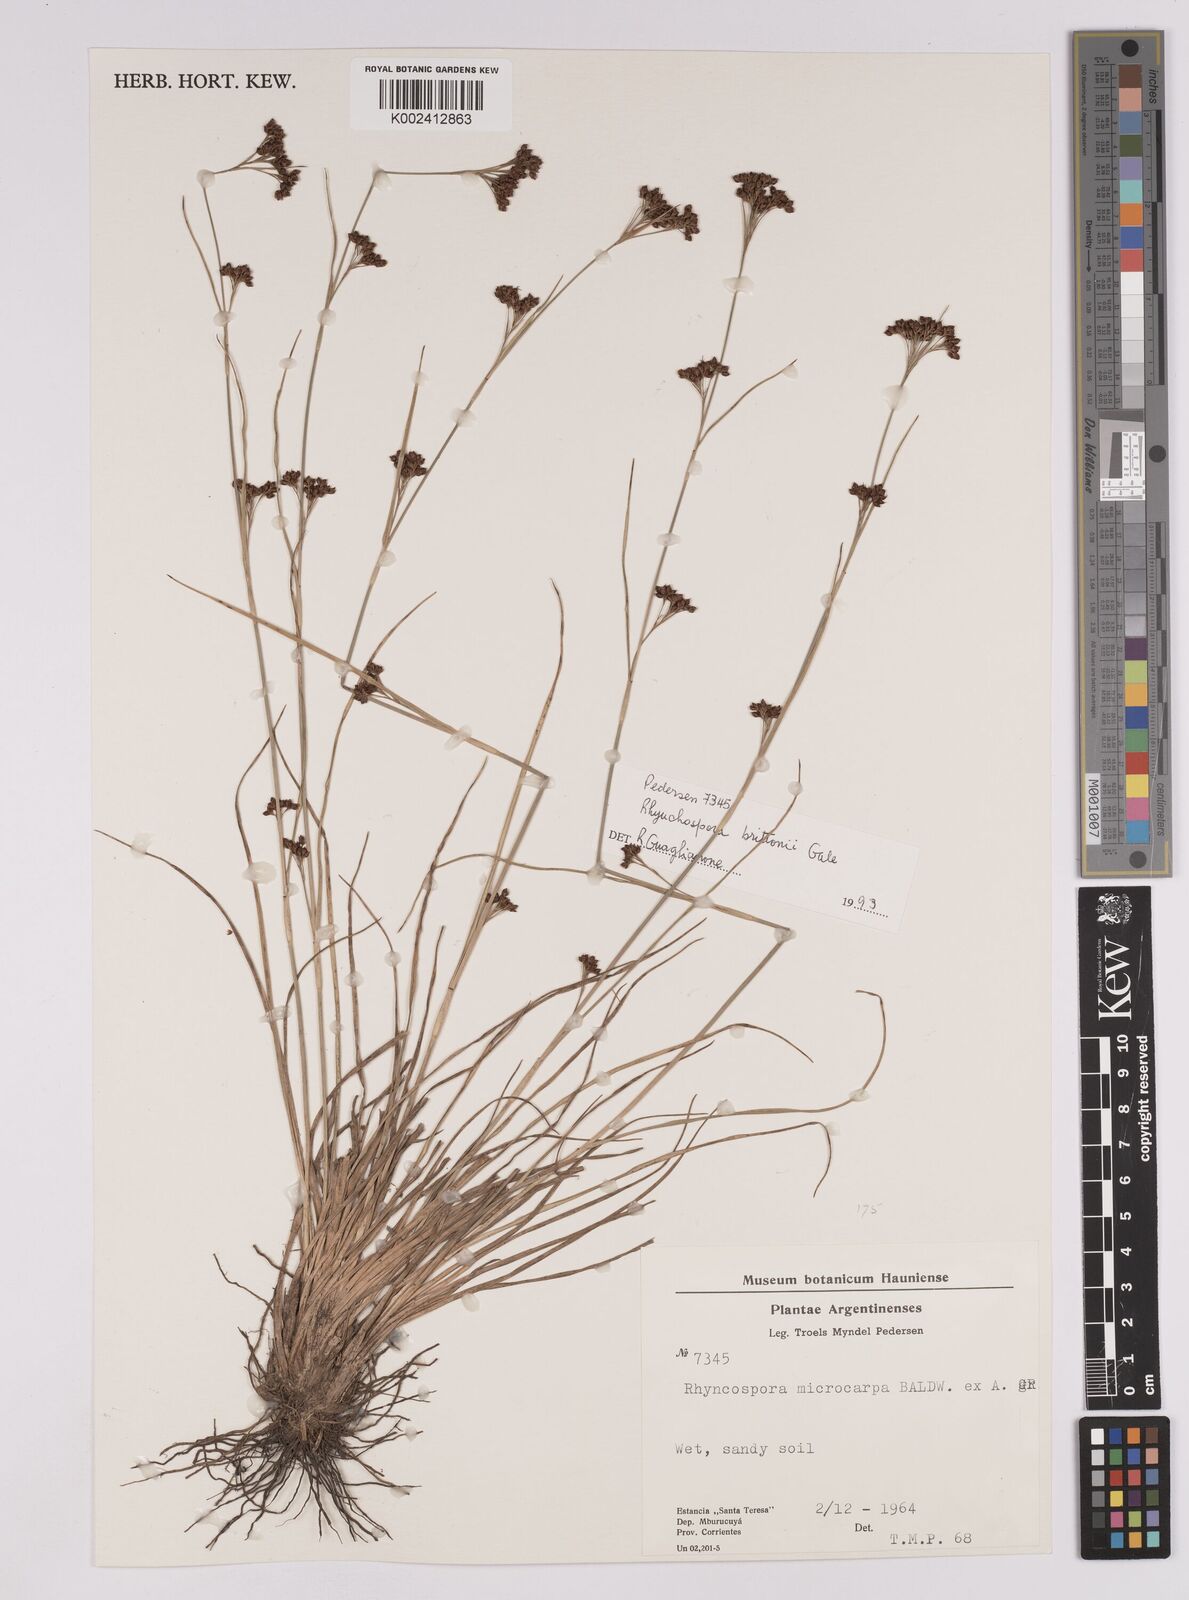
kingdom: Plantae
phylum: Tracheophyta
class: Liliopsida
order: Poales
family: Cyperaceae
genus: Rhynchospora
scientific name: Rhynchospora microcarpa
